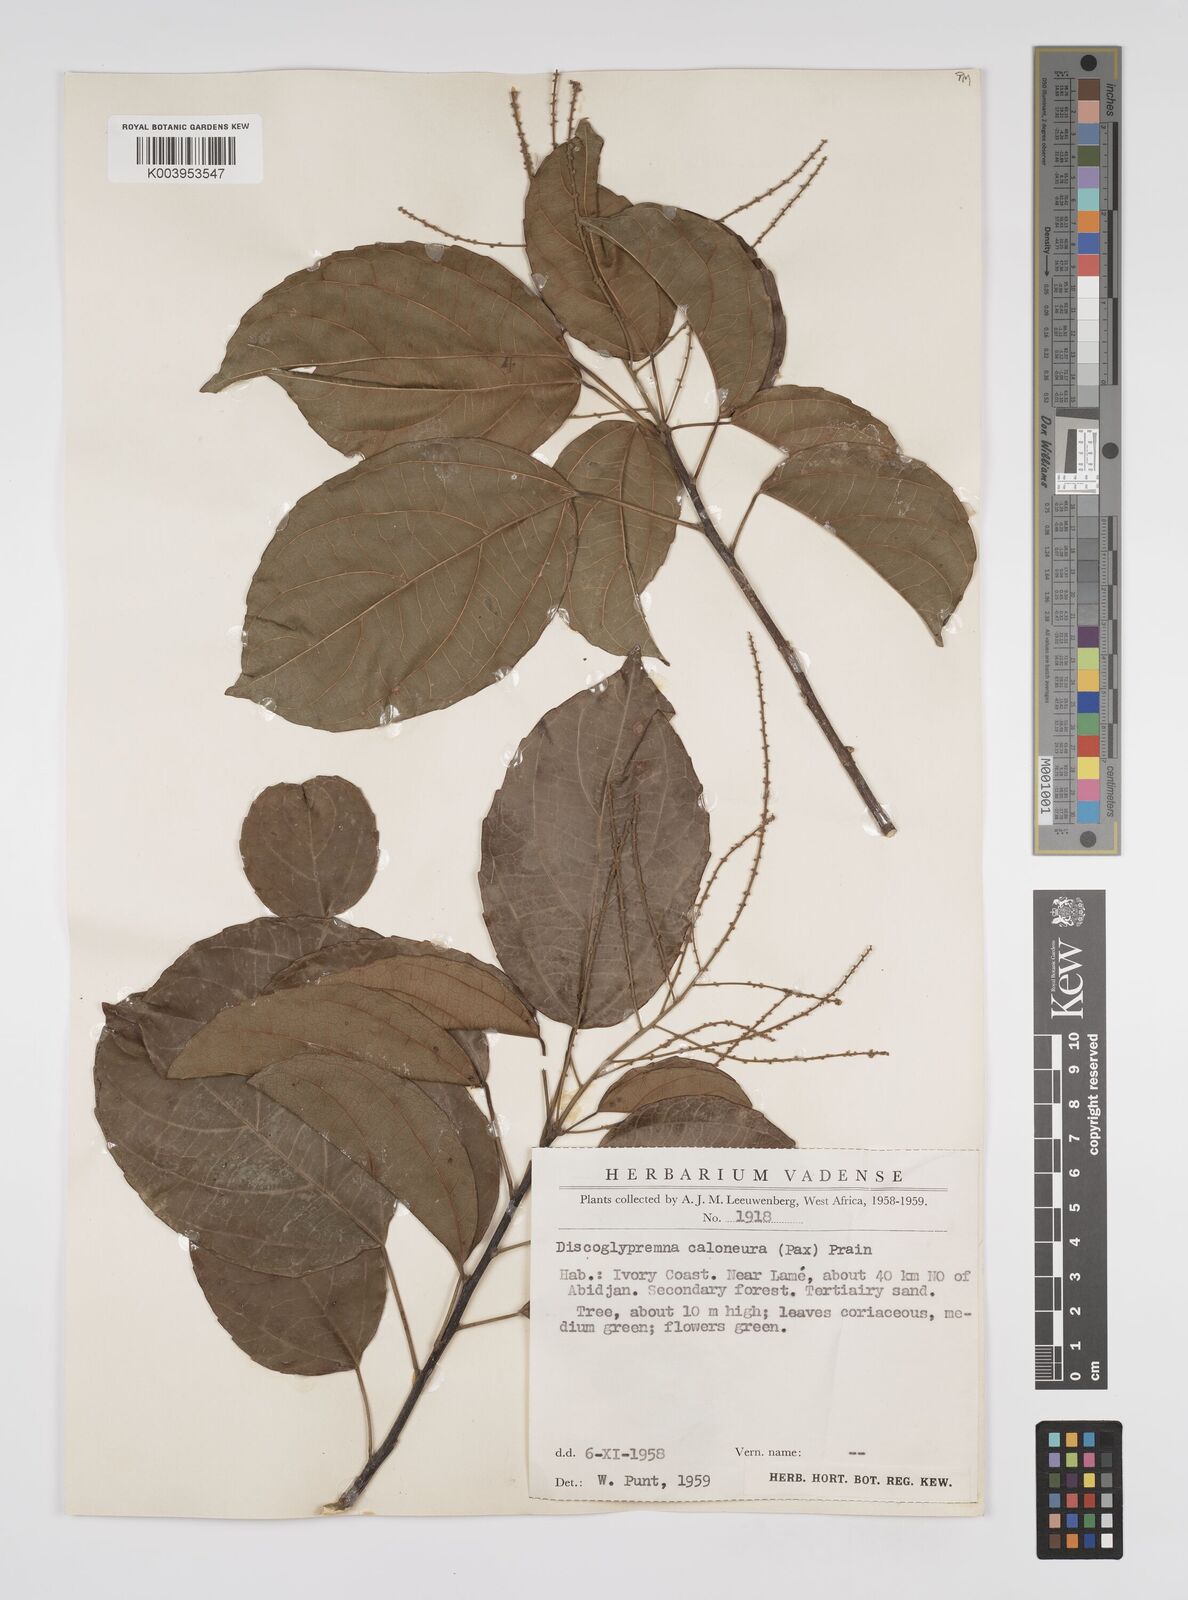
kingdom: Plantae
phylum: Tracheophyta
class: Magnoliopsida
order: Malpighiales
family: Euphorbiaceae
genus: Discoglypremna
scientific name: Discoglypremna caloneura
